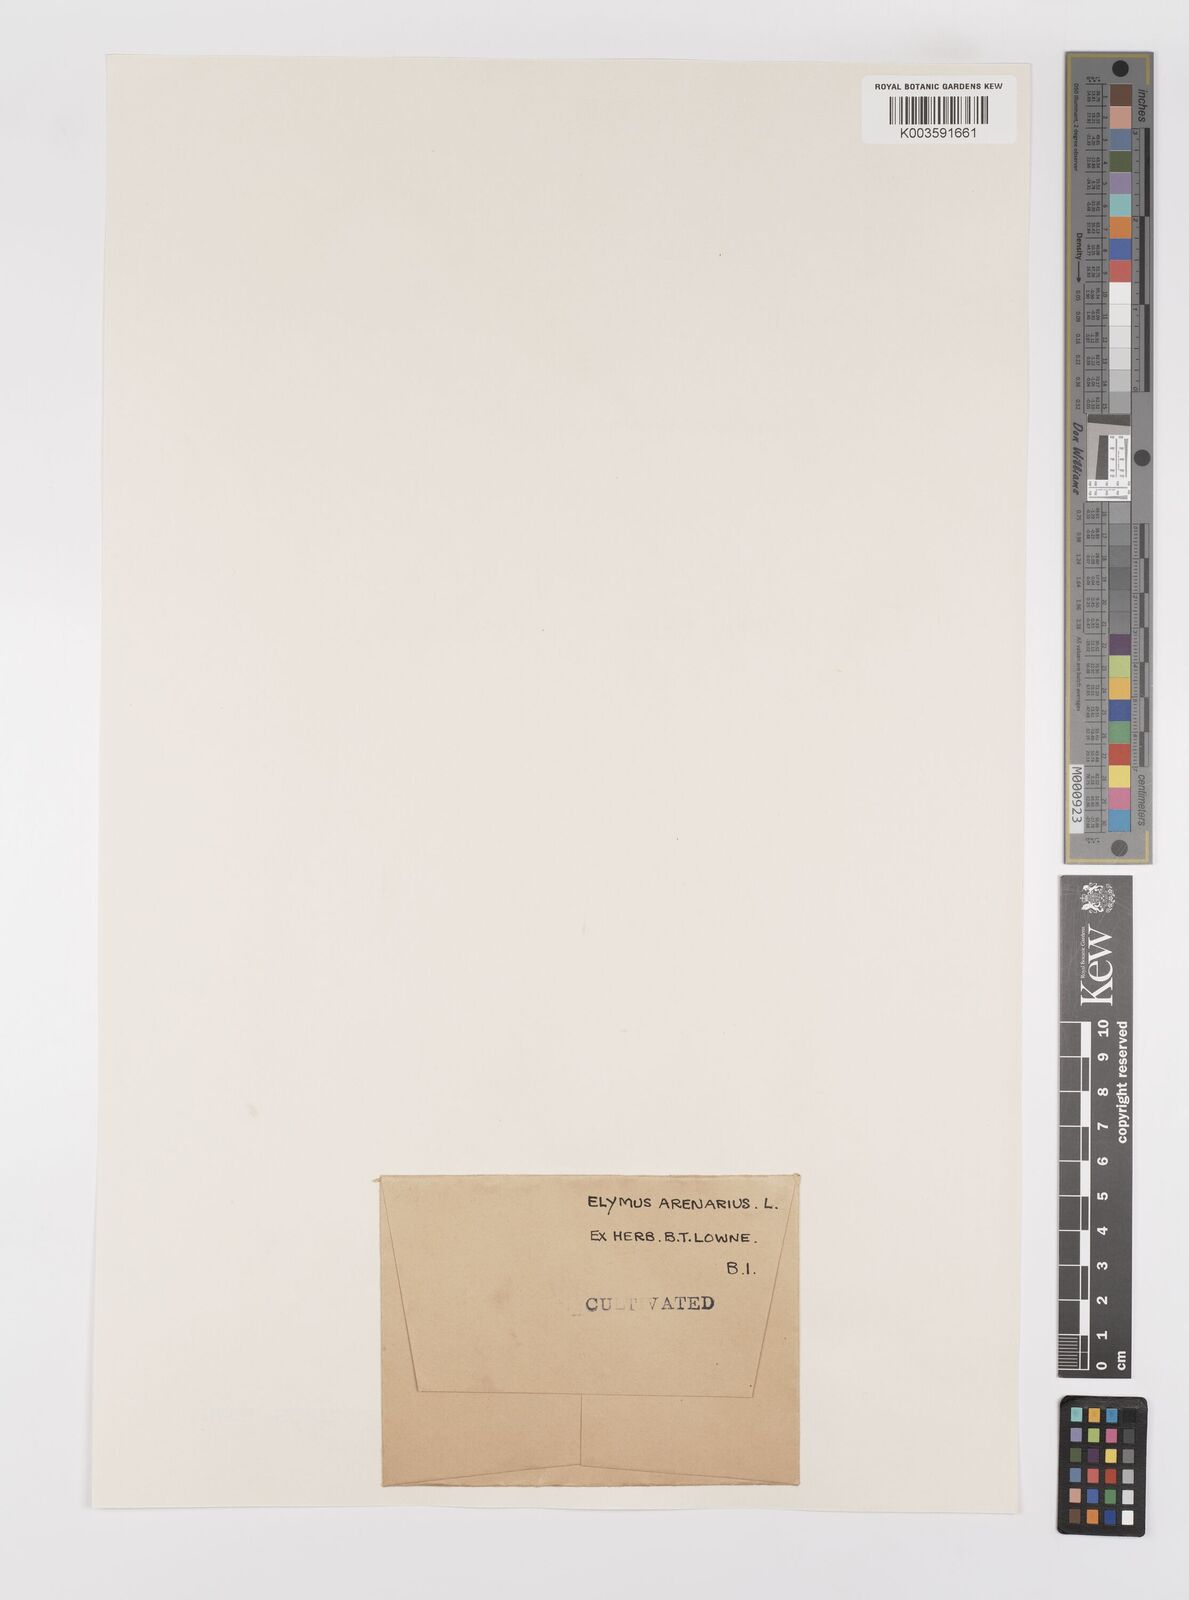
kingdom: Plantae
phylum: Tracheophyta
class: Liliopsida
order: Poales
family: Poaceae
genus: Leymus
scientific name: Leymus arenarius
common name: Lyme-grass
